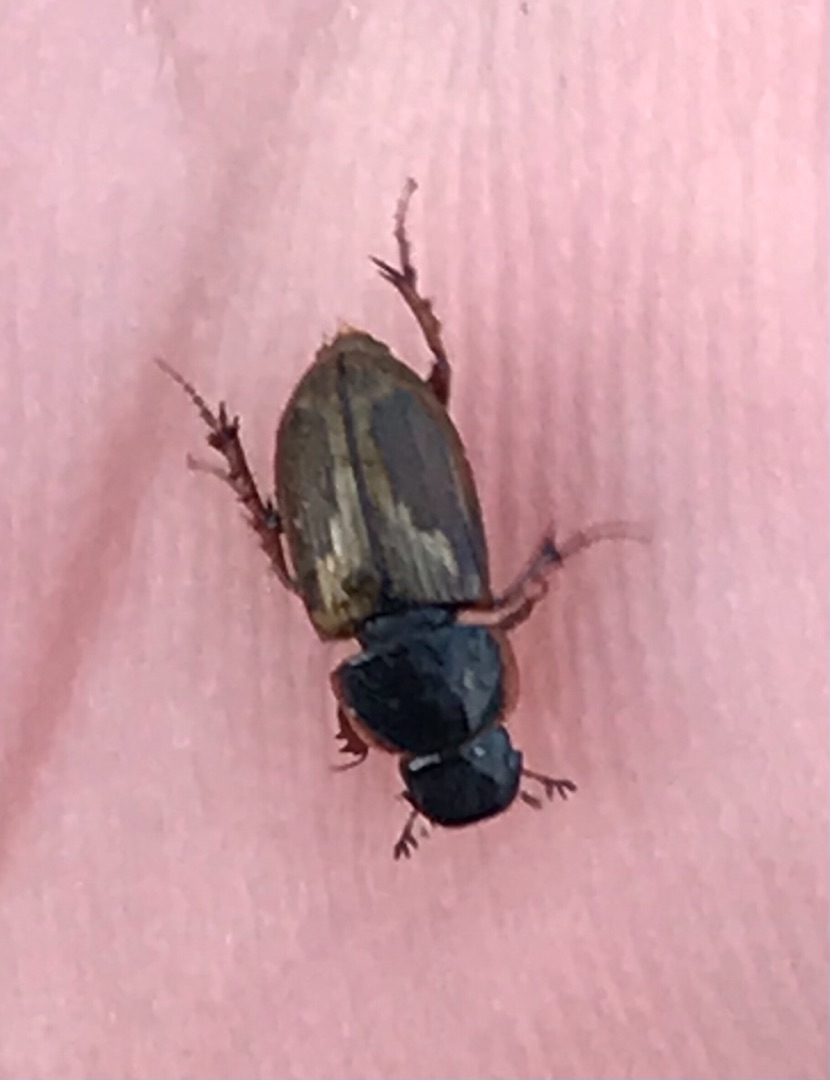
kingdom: Animalia
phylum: Arthropoda
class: Insecta
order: Coleoptera
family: Scarabaeidae
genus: Aphodius
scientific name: Aphodius
